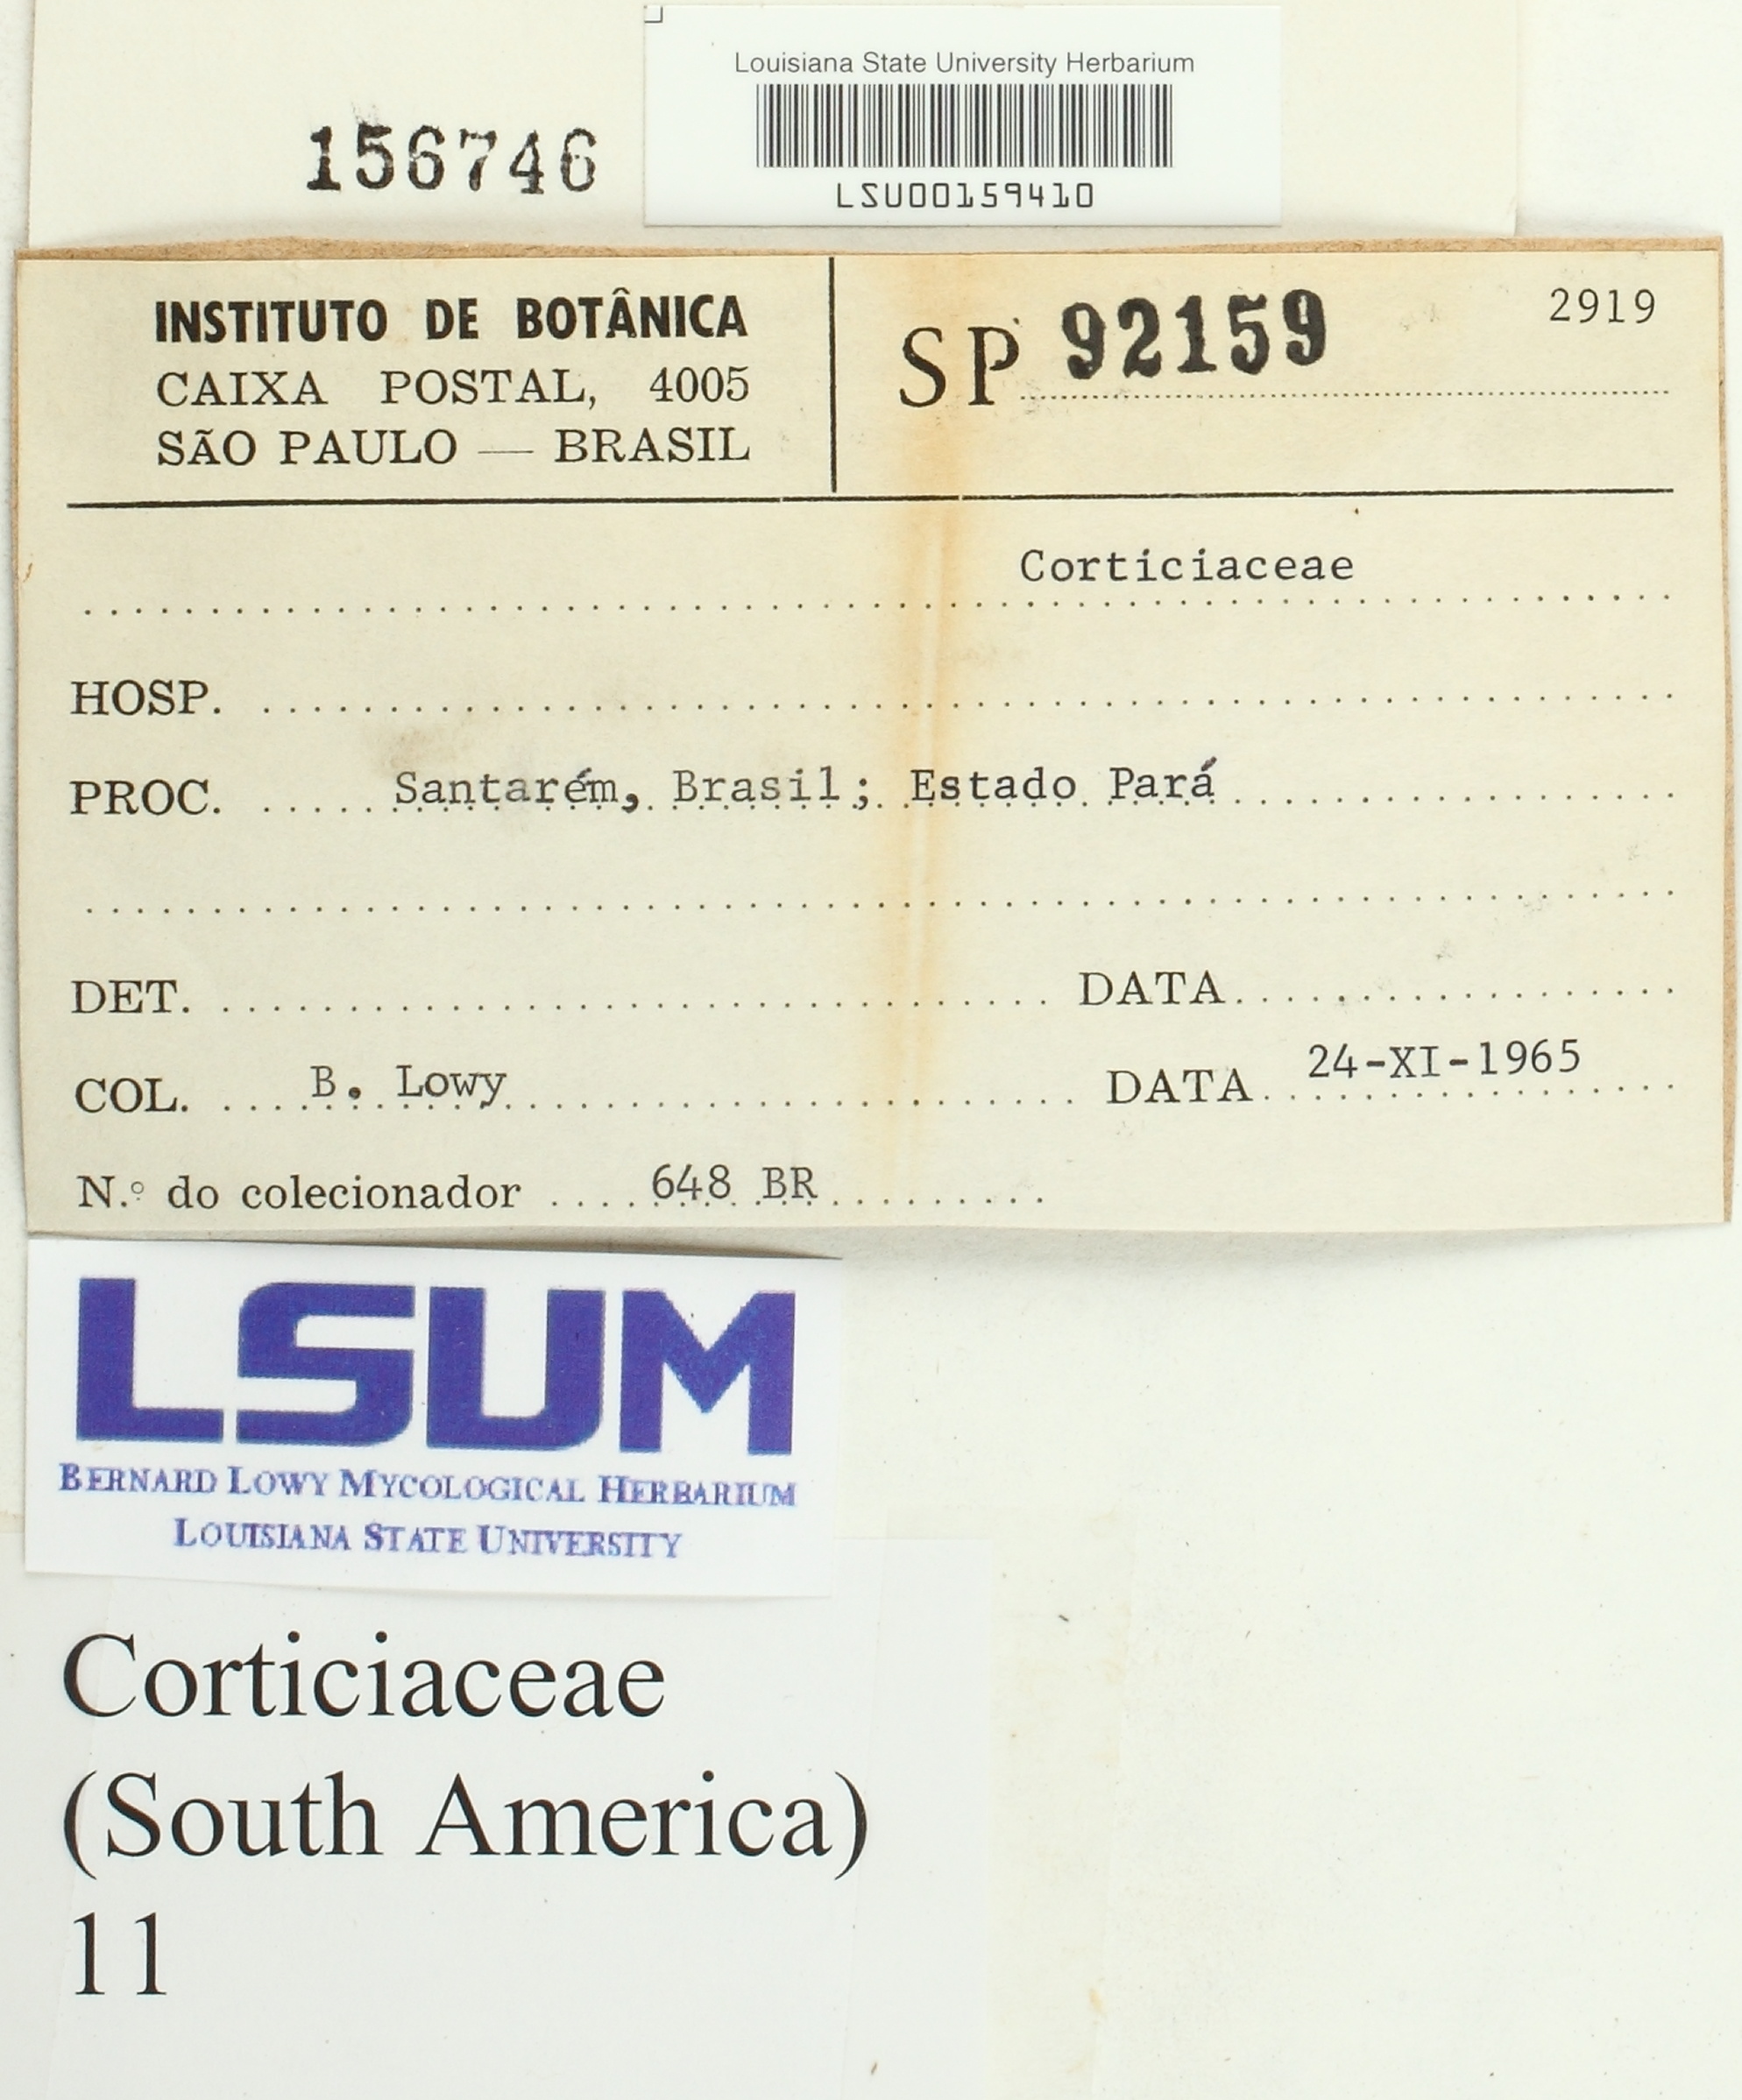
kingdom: Fungi
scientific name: Fungi
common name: Fungi
